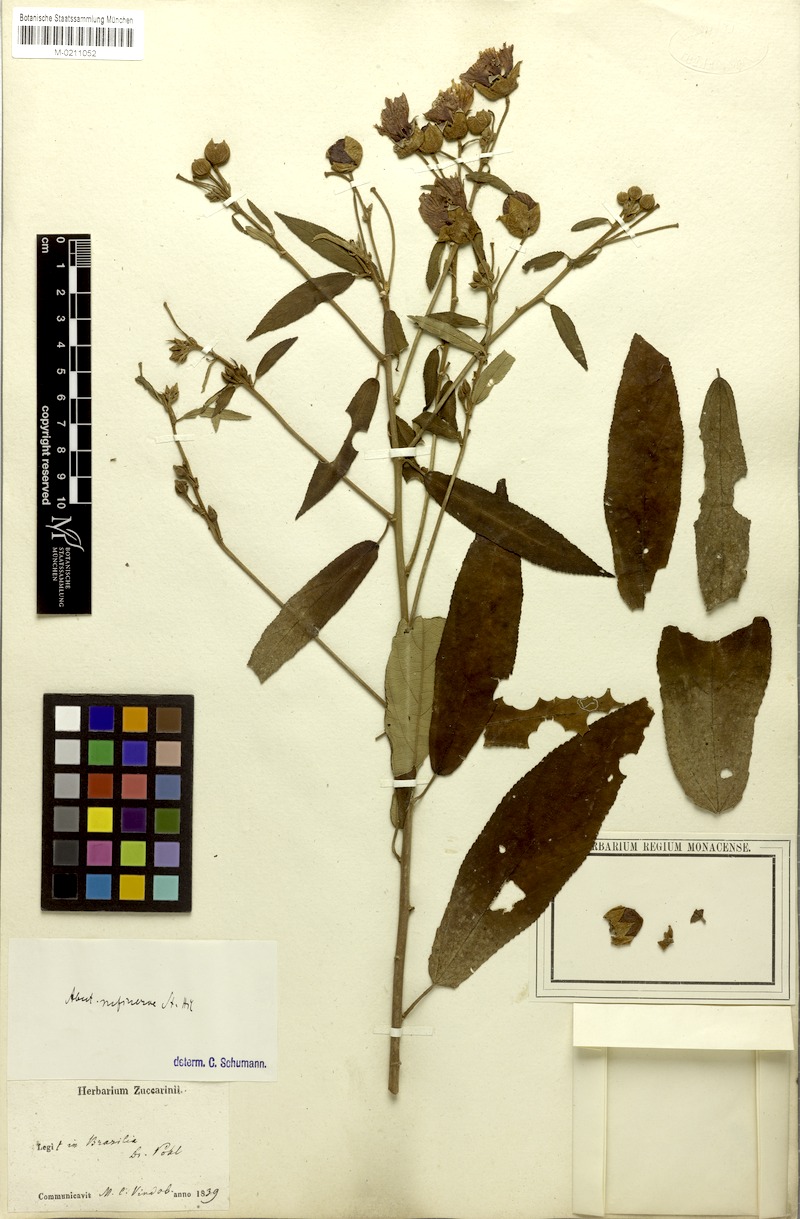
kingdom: Plantae
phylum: Tracheophyta
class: Magnoliopsida
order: Malvales
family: Malvaceae
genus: Callianthe
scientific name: Callianthe rufinerva
